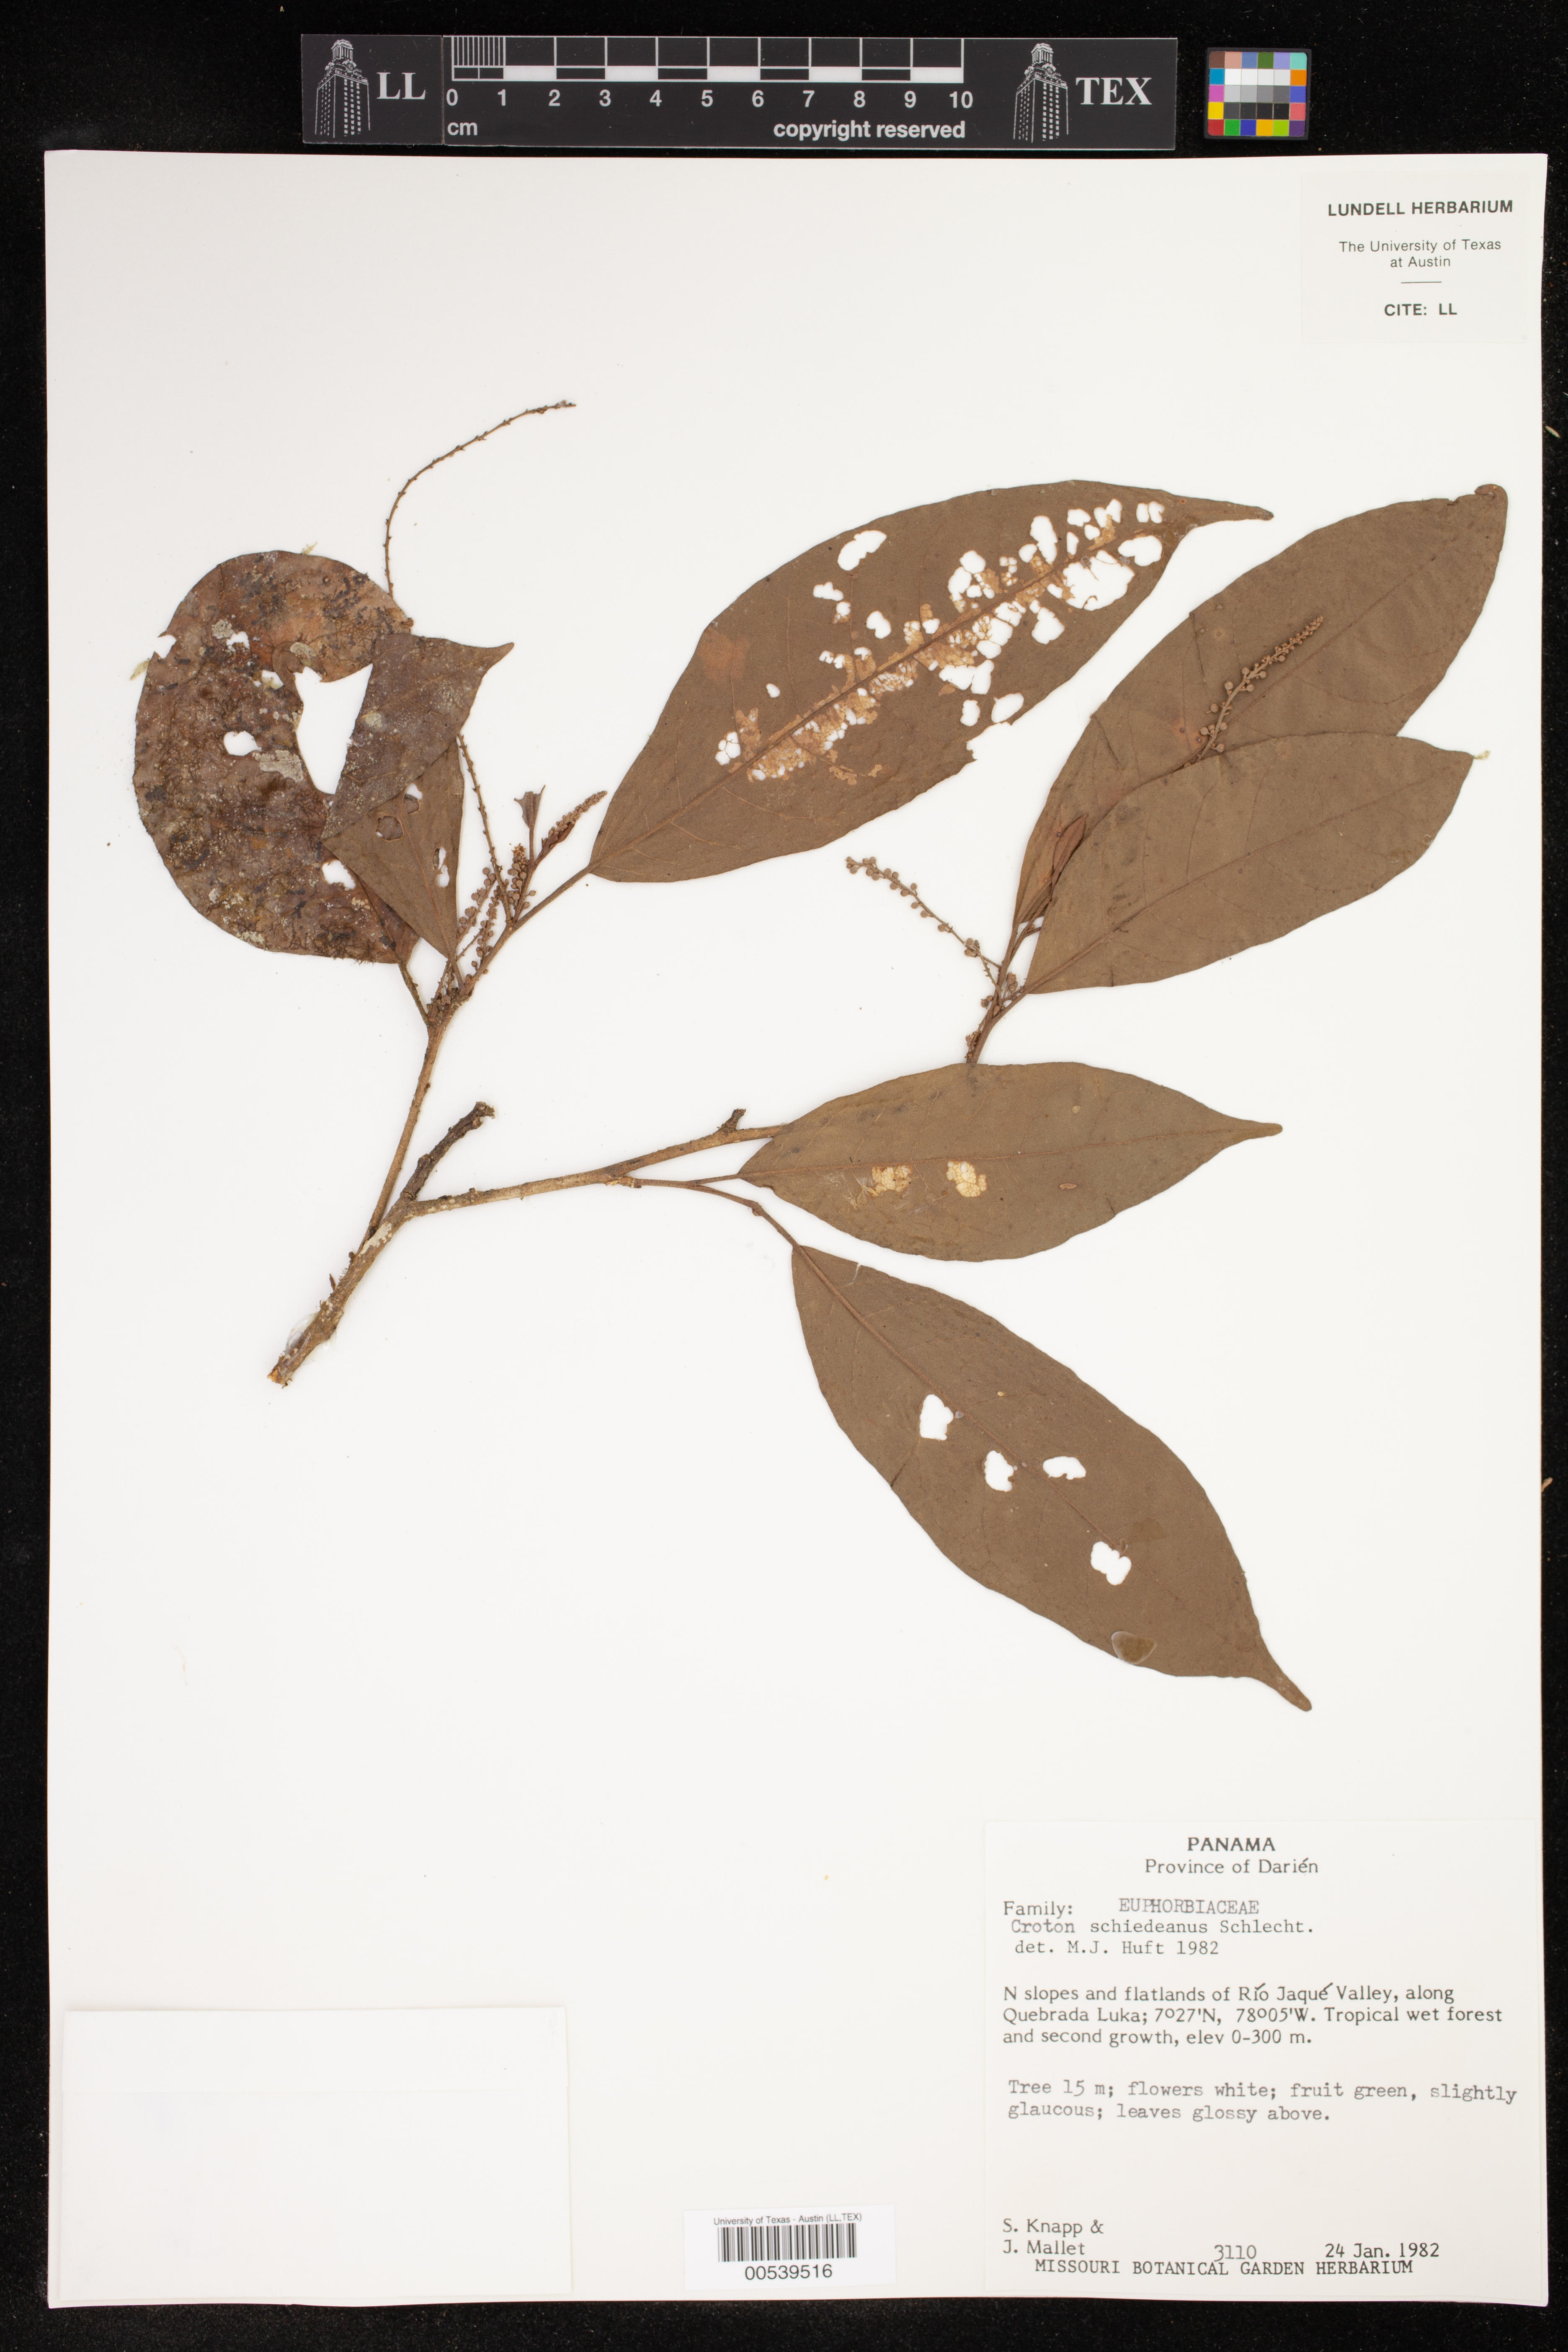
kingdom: Plantae
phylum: Tracheophyta
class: Magnoliopsida
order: Malpighiales
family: Euphorbiaceae
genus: Croton
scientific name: Croton schiedeanus
